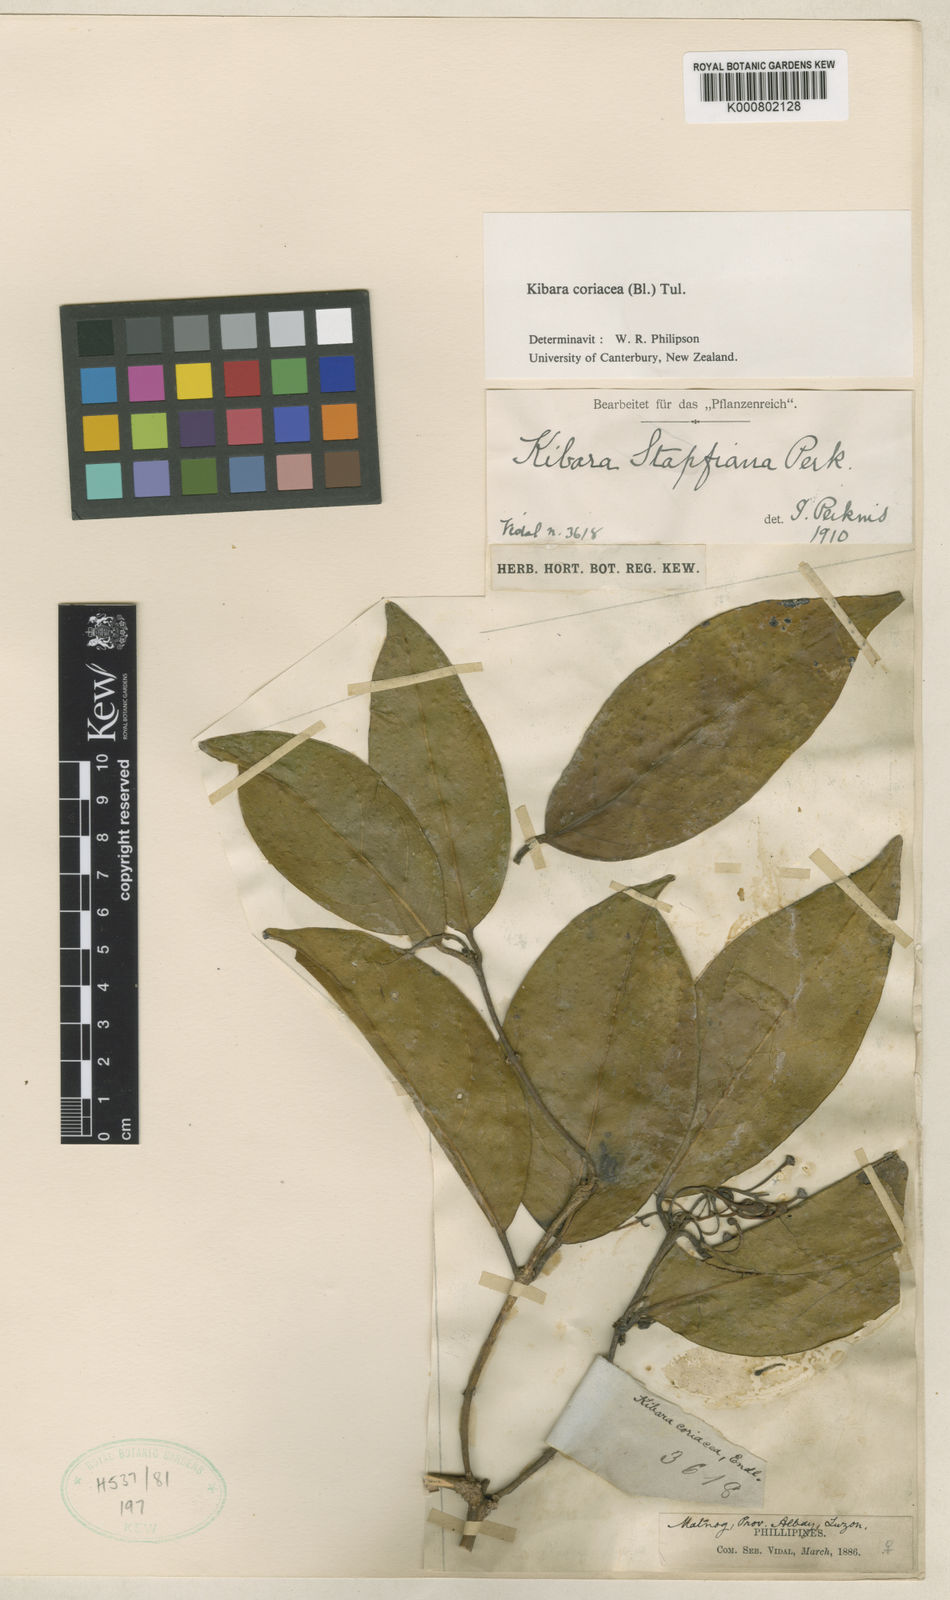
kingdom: Plantae
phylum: Tracheophyta
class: Magnoliopsida
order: Laurales
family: Monimiaceae
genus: Kibara
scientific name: Kibara coriacea
